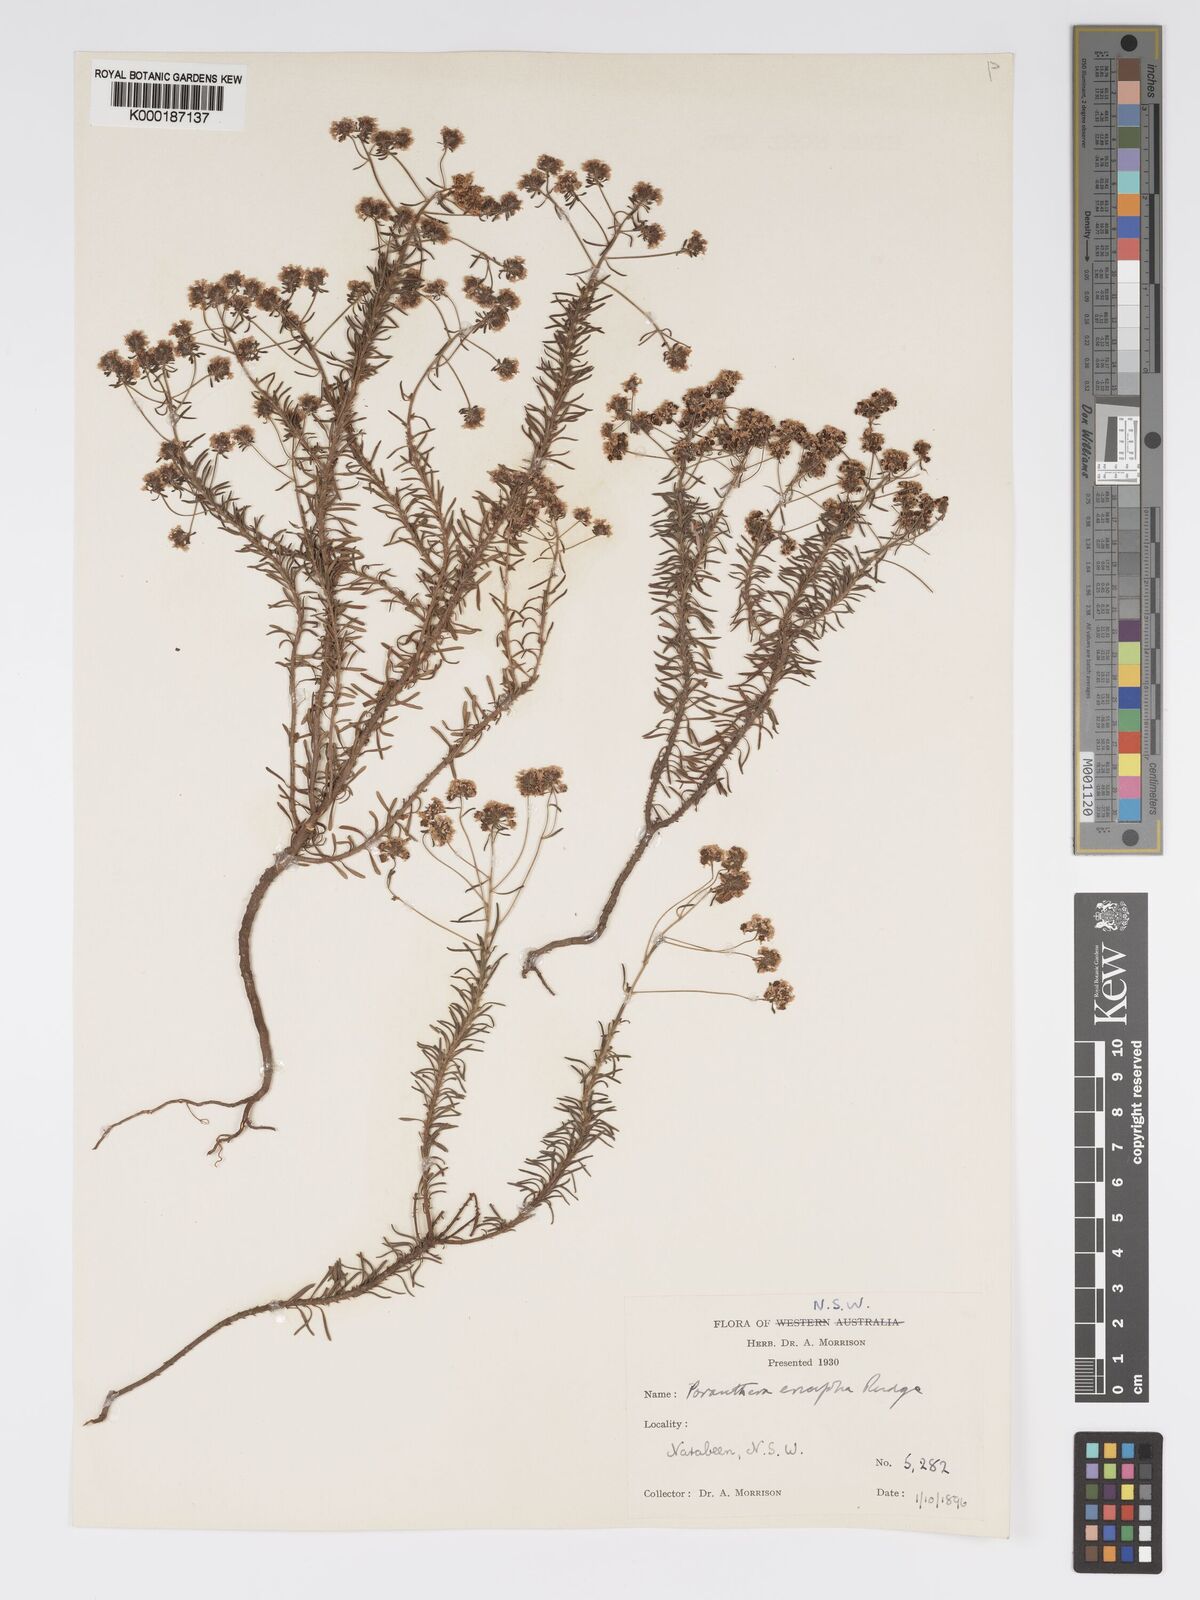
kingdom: Plantae
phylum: Tracheophyta
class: Magnoliopsida
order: Malpighiales
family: Phyllanthaceae
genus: Poranthera
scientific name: Poranthera ericifolia
